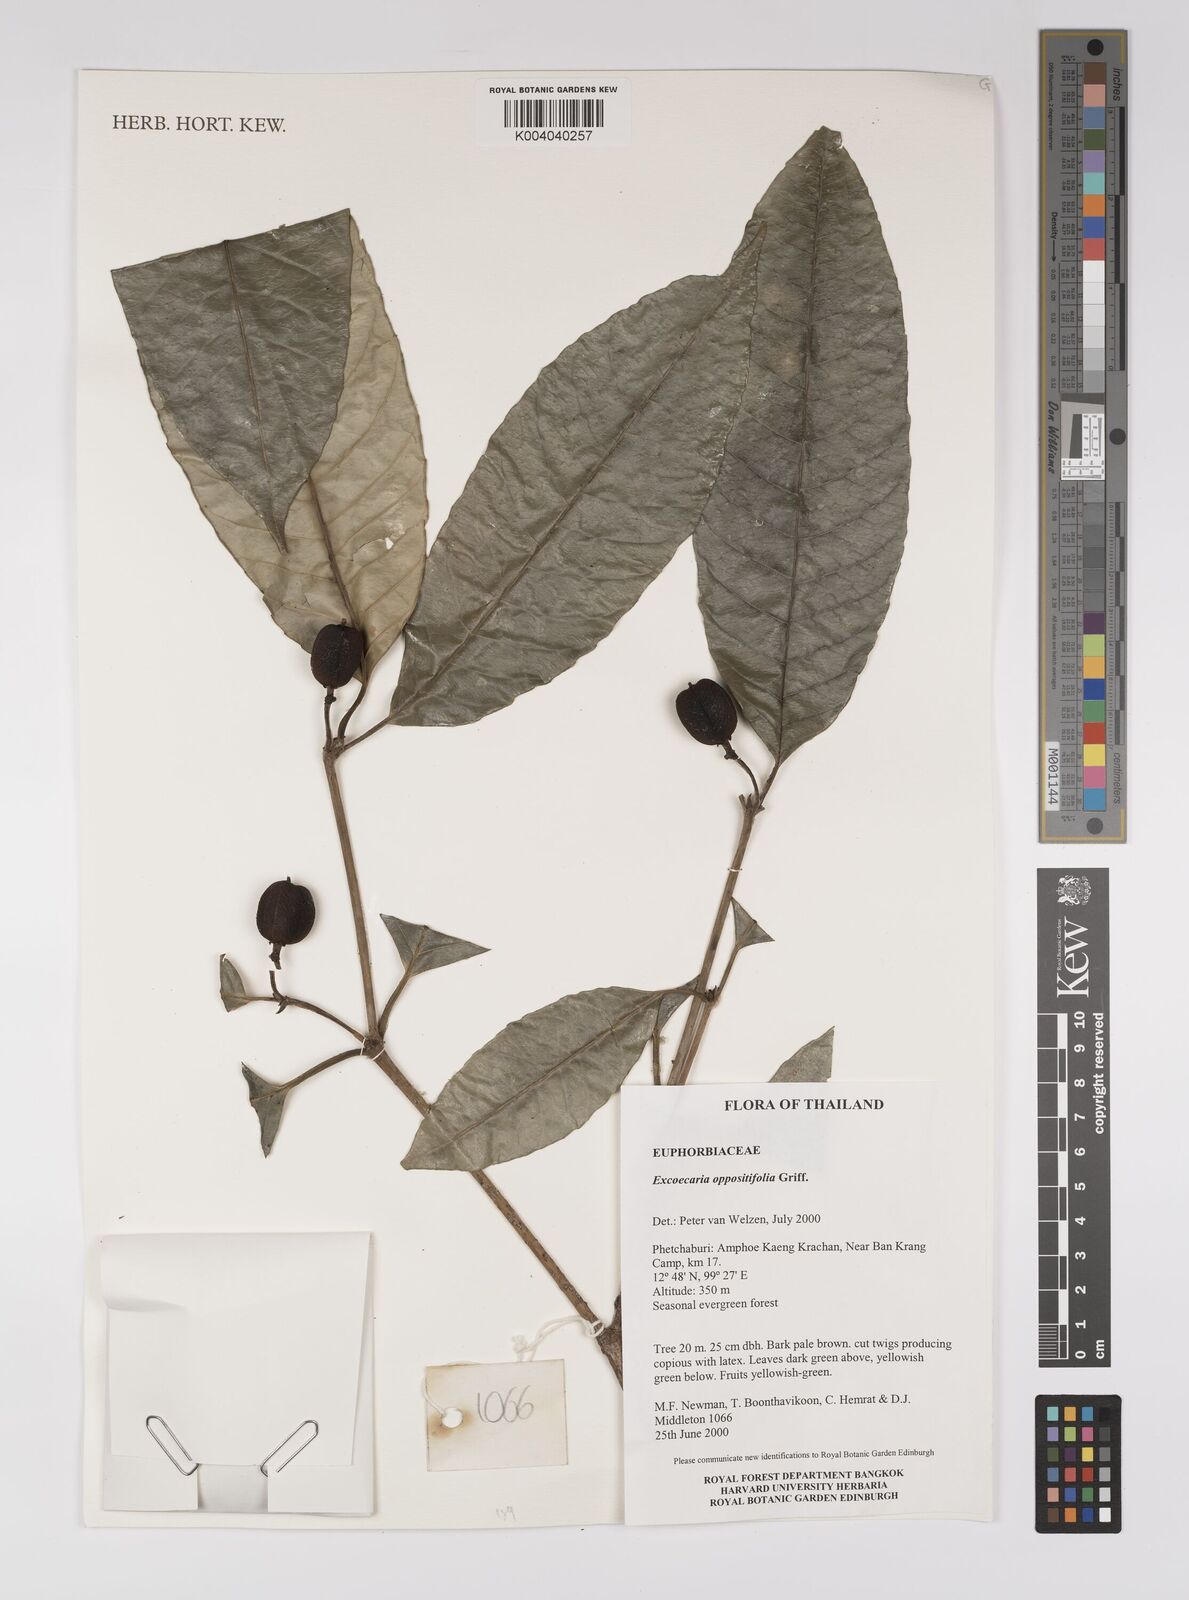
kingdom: Plantae
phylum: Tracheophyta
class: Magnoliopsida
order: Malpighiales
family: Euphorbiaceae
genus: Excoecaria
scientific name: Excoecaria oppositifolia
